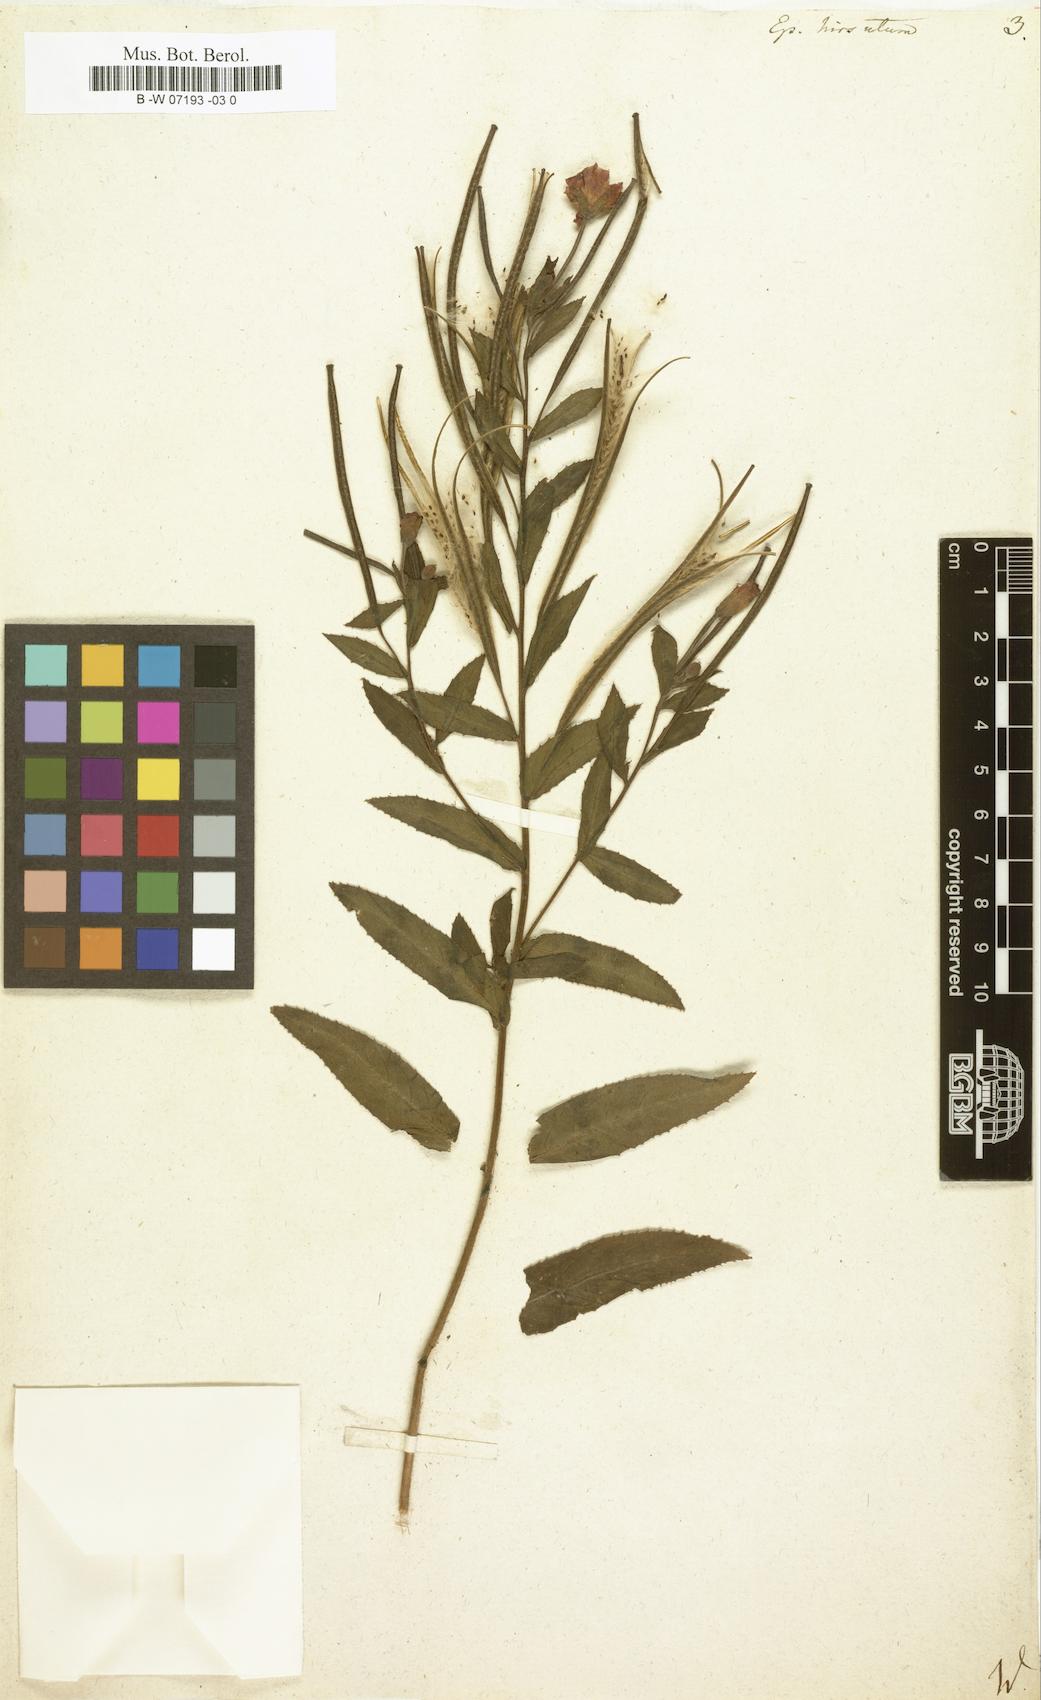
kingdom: Plantae
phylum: Tracheophyta
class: Magnoliopsida
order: Myrtales
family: Onagraceae
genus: Epilobium
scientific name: Epilobium hirsutum
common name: Great willowherb
